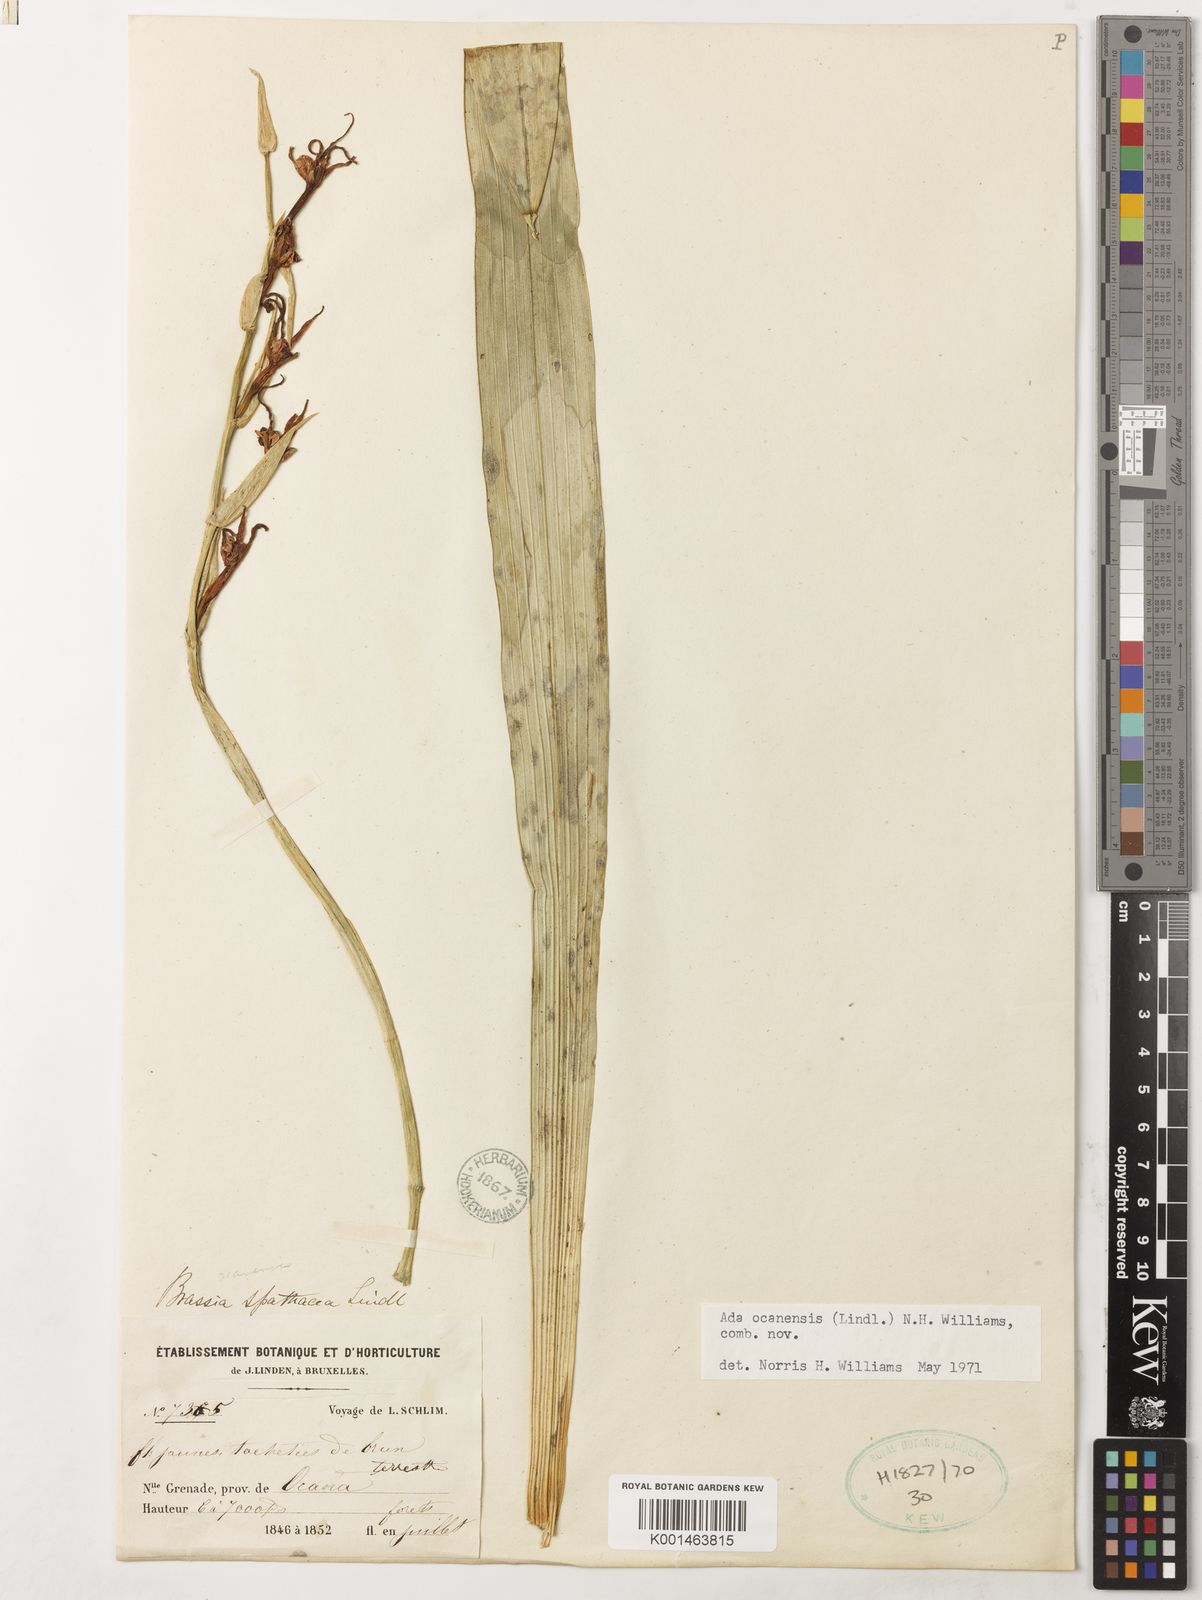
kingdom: Plantae
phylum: Tracheophyta
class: Liliopsida
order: Asparagales
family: Orchidaceae
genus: Brassia
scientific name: Brassia ocanensis
